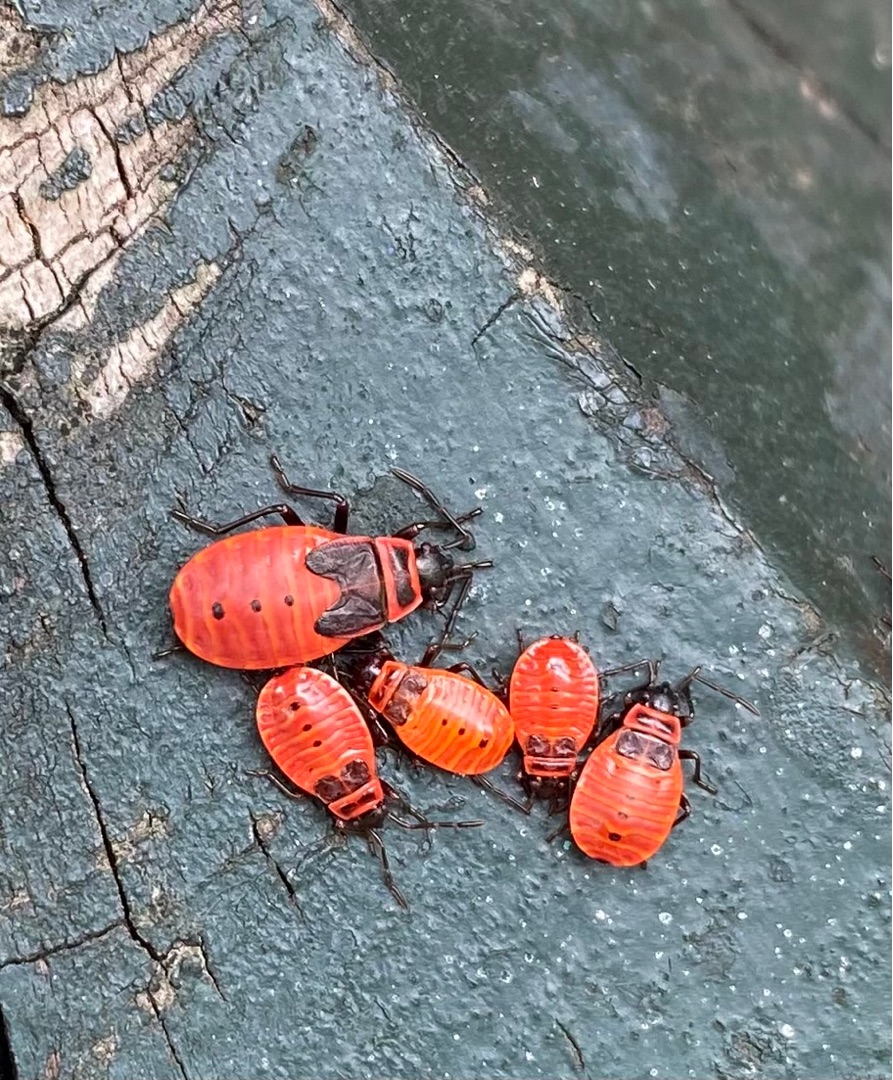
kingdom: Animalia
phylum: Arthropoda
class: Insecta
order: Hemiptera
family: Pyrrhocoridae
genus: Pyrrhocoris
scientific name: Pyrrhocoris apterus
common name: Ildtæge
